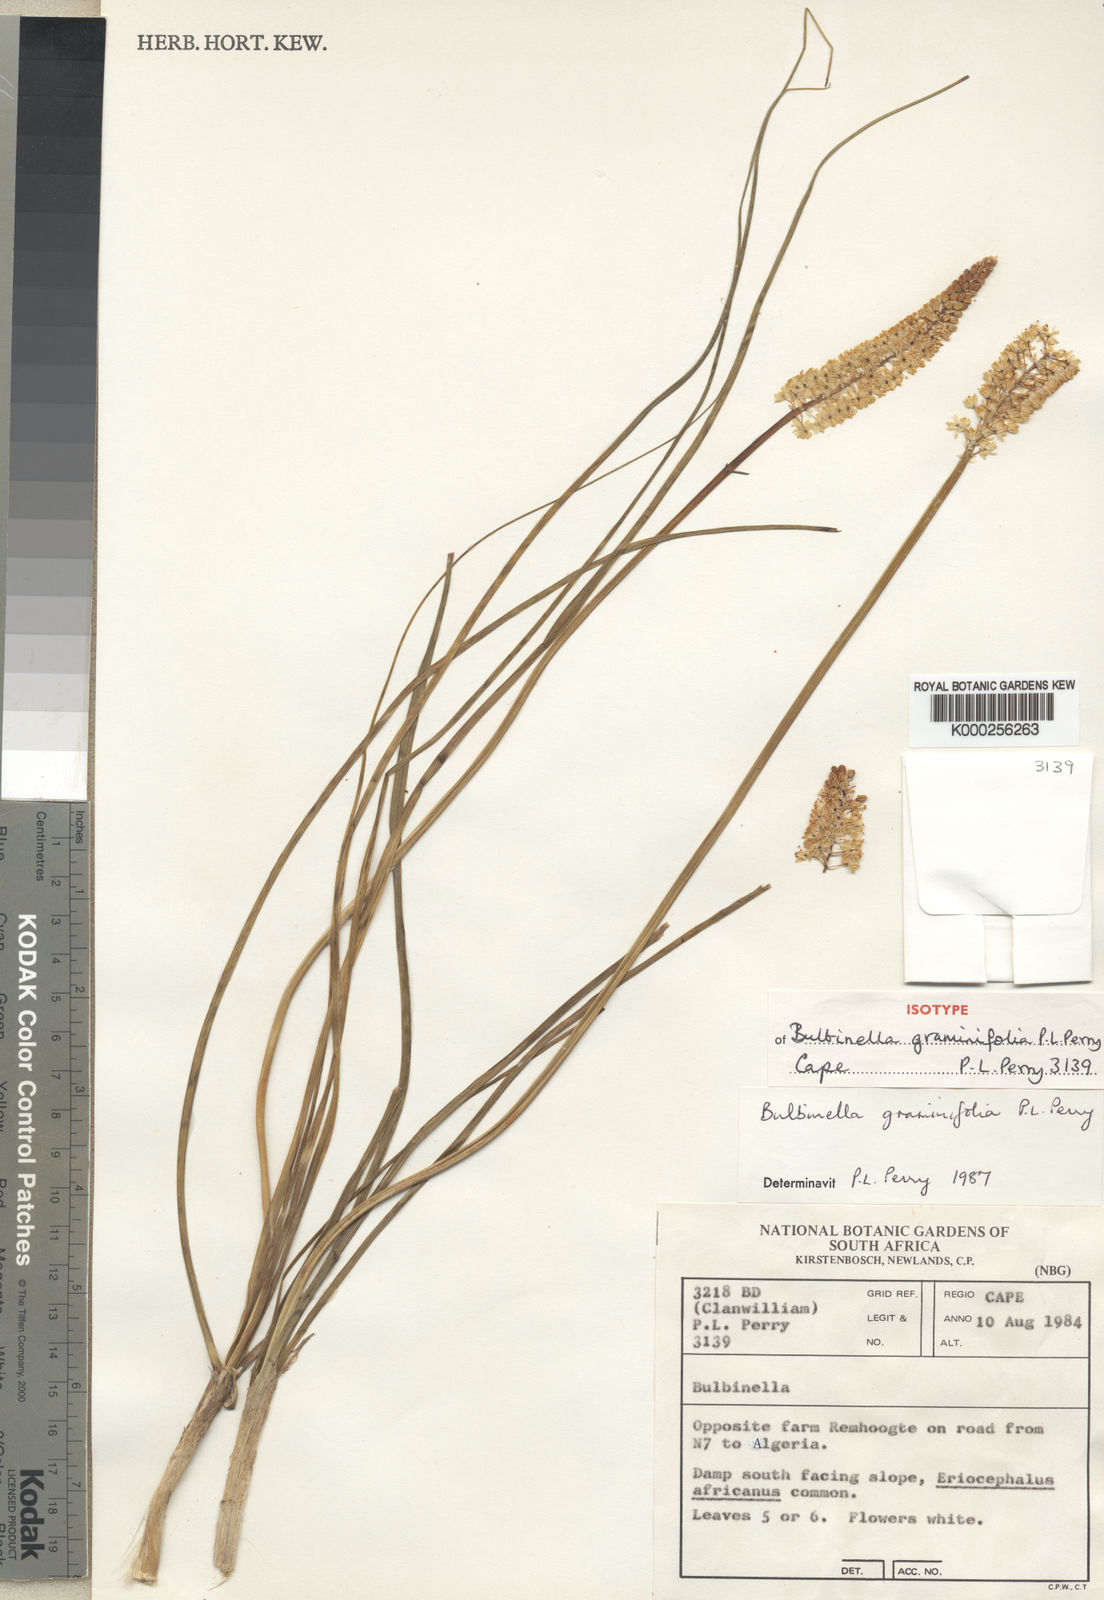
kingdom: Plantae
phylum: Tracheophyta
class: Liliopsida
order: Asparagales
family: Asphodelaceae
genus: Bulbinella
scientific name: Bulbinella graminifolia
